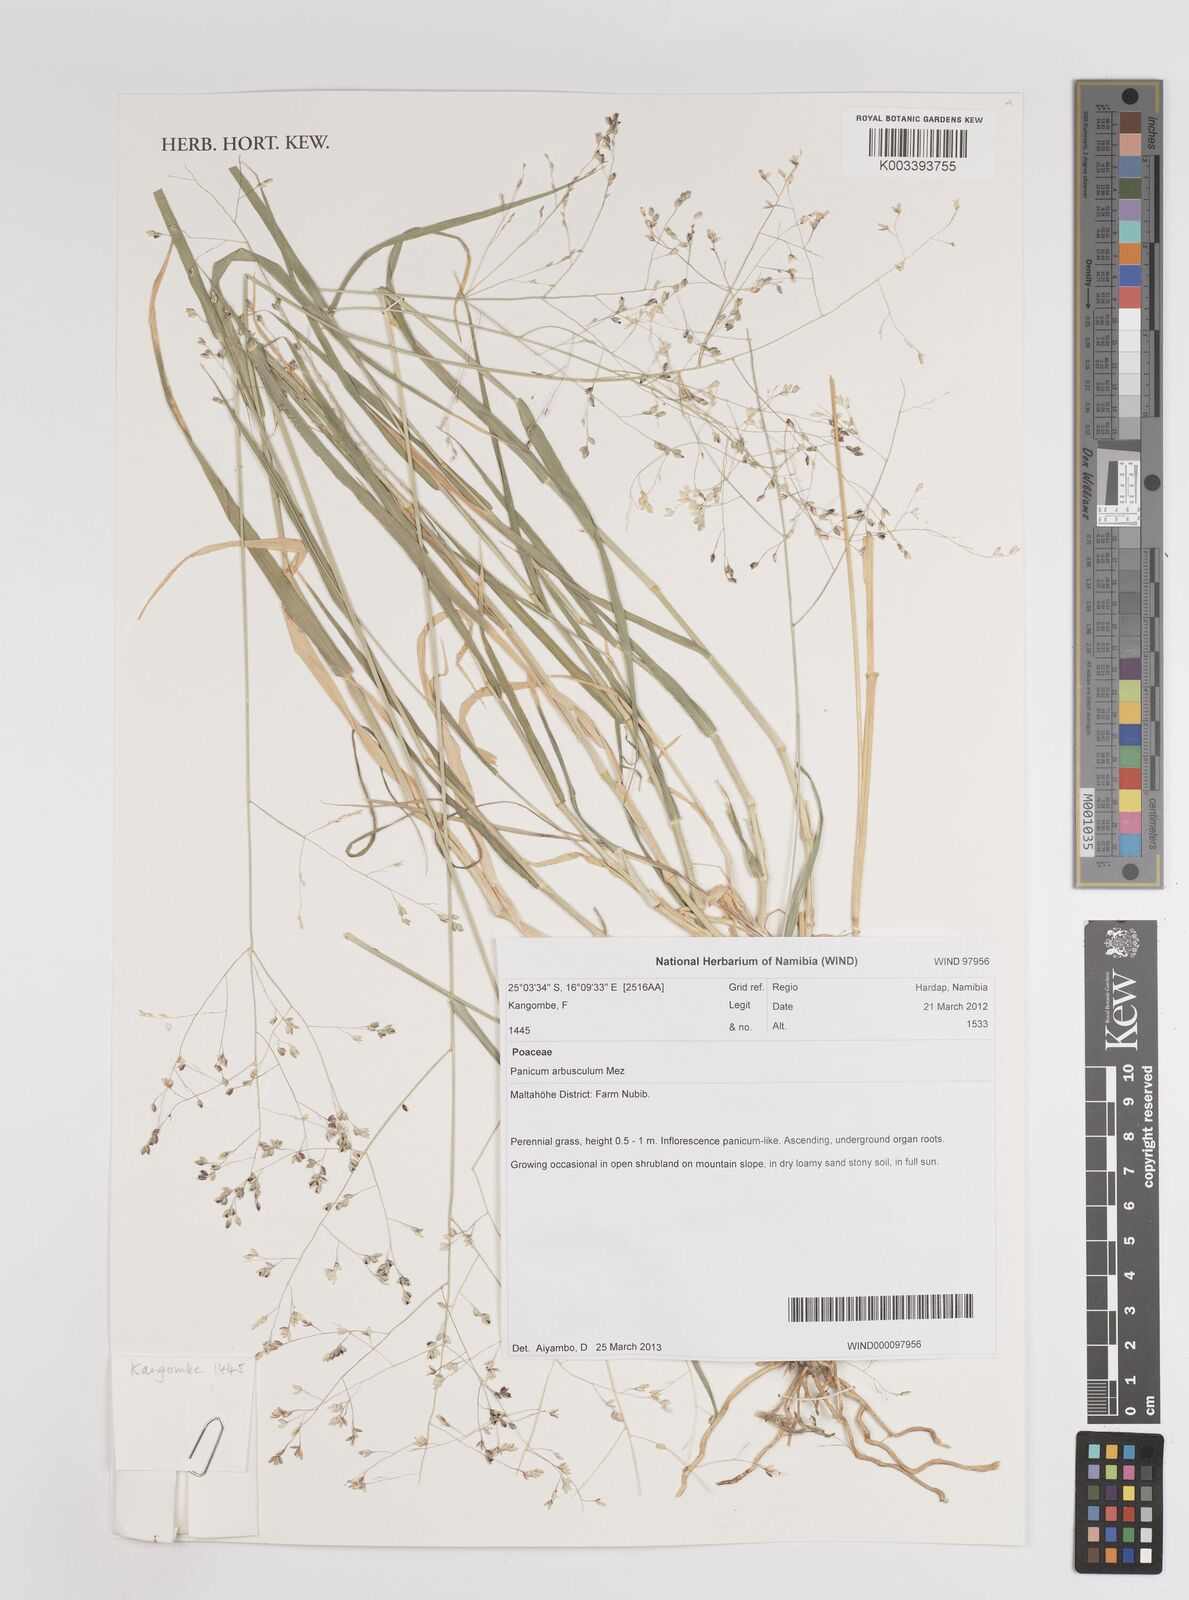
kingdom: Plantae
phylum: Tracheophyta
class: Liliopsida
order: Poales
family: Poaceae
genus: Panicum
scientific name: Panicum arbusculum
